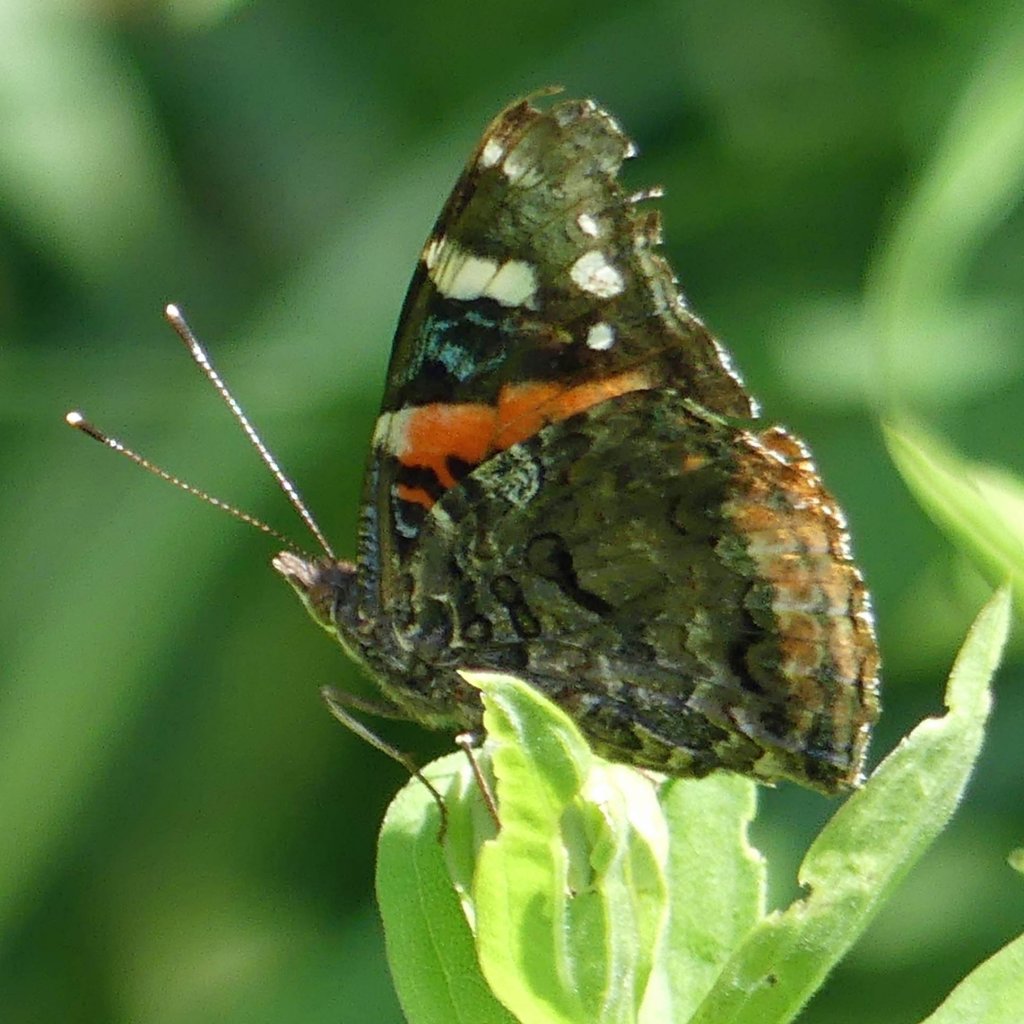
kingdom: Animalia
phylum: Arthropoda
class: Insecta
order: Lepidoptera
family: Nymphalidae
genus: Vanessa
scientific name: Vanessa atalanta
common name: Red Admiral
